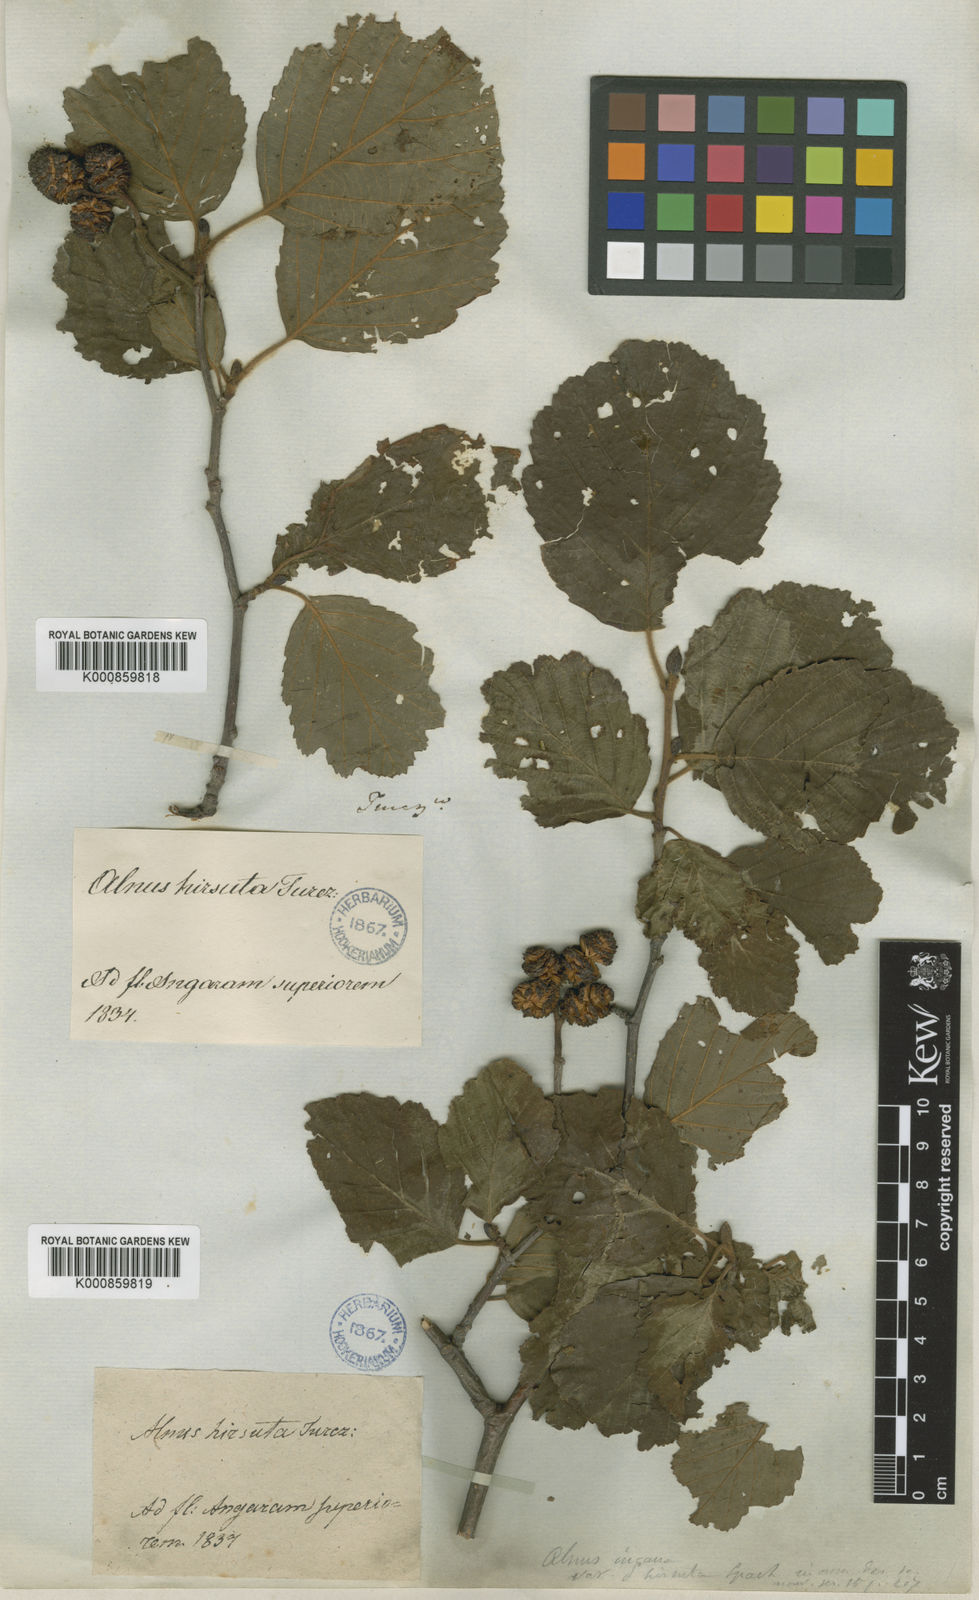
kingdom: Plantae
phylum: Tracheophyta
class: Magnoliopsida
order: Fagales
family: Betulaceae
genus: Alnus
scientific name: Alnus
